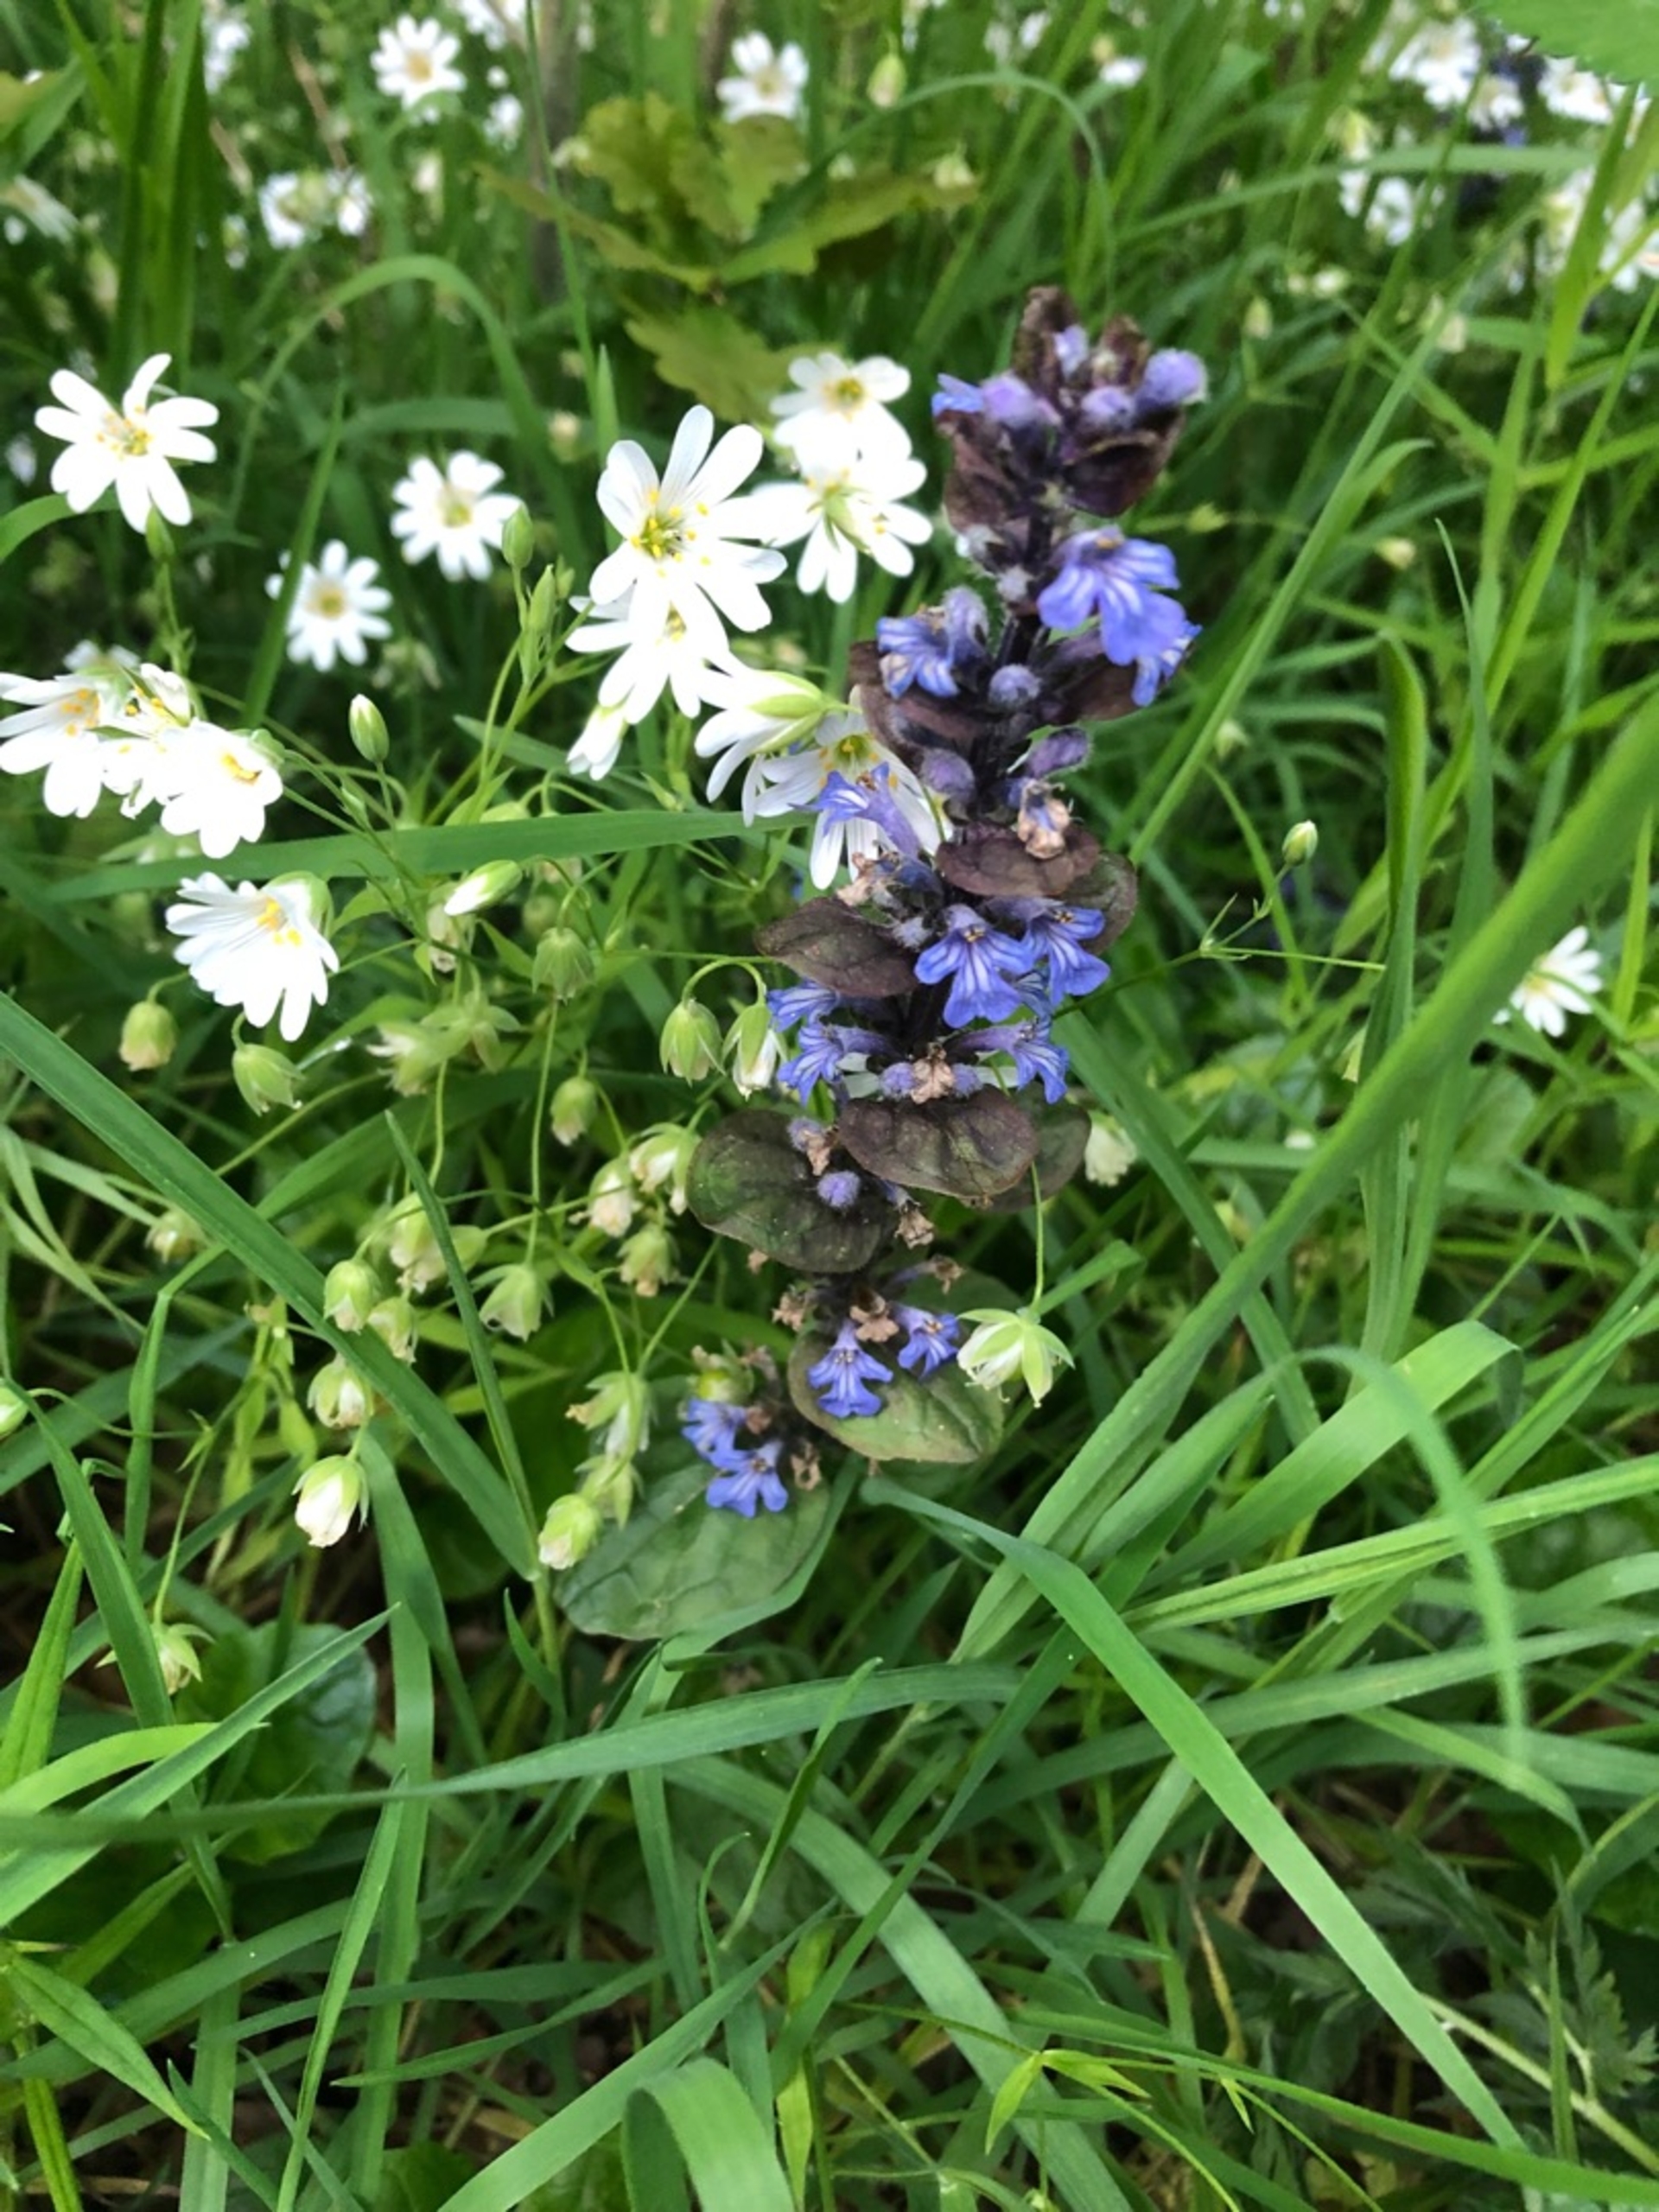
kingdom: Plantae
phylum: Tracheophyta
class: Magnoliopsida
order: Lamiales
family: Lamiaceae
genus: Ajuga
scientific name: Ajuga reptans
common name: Krybende læbeløs
